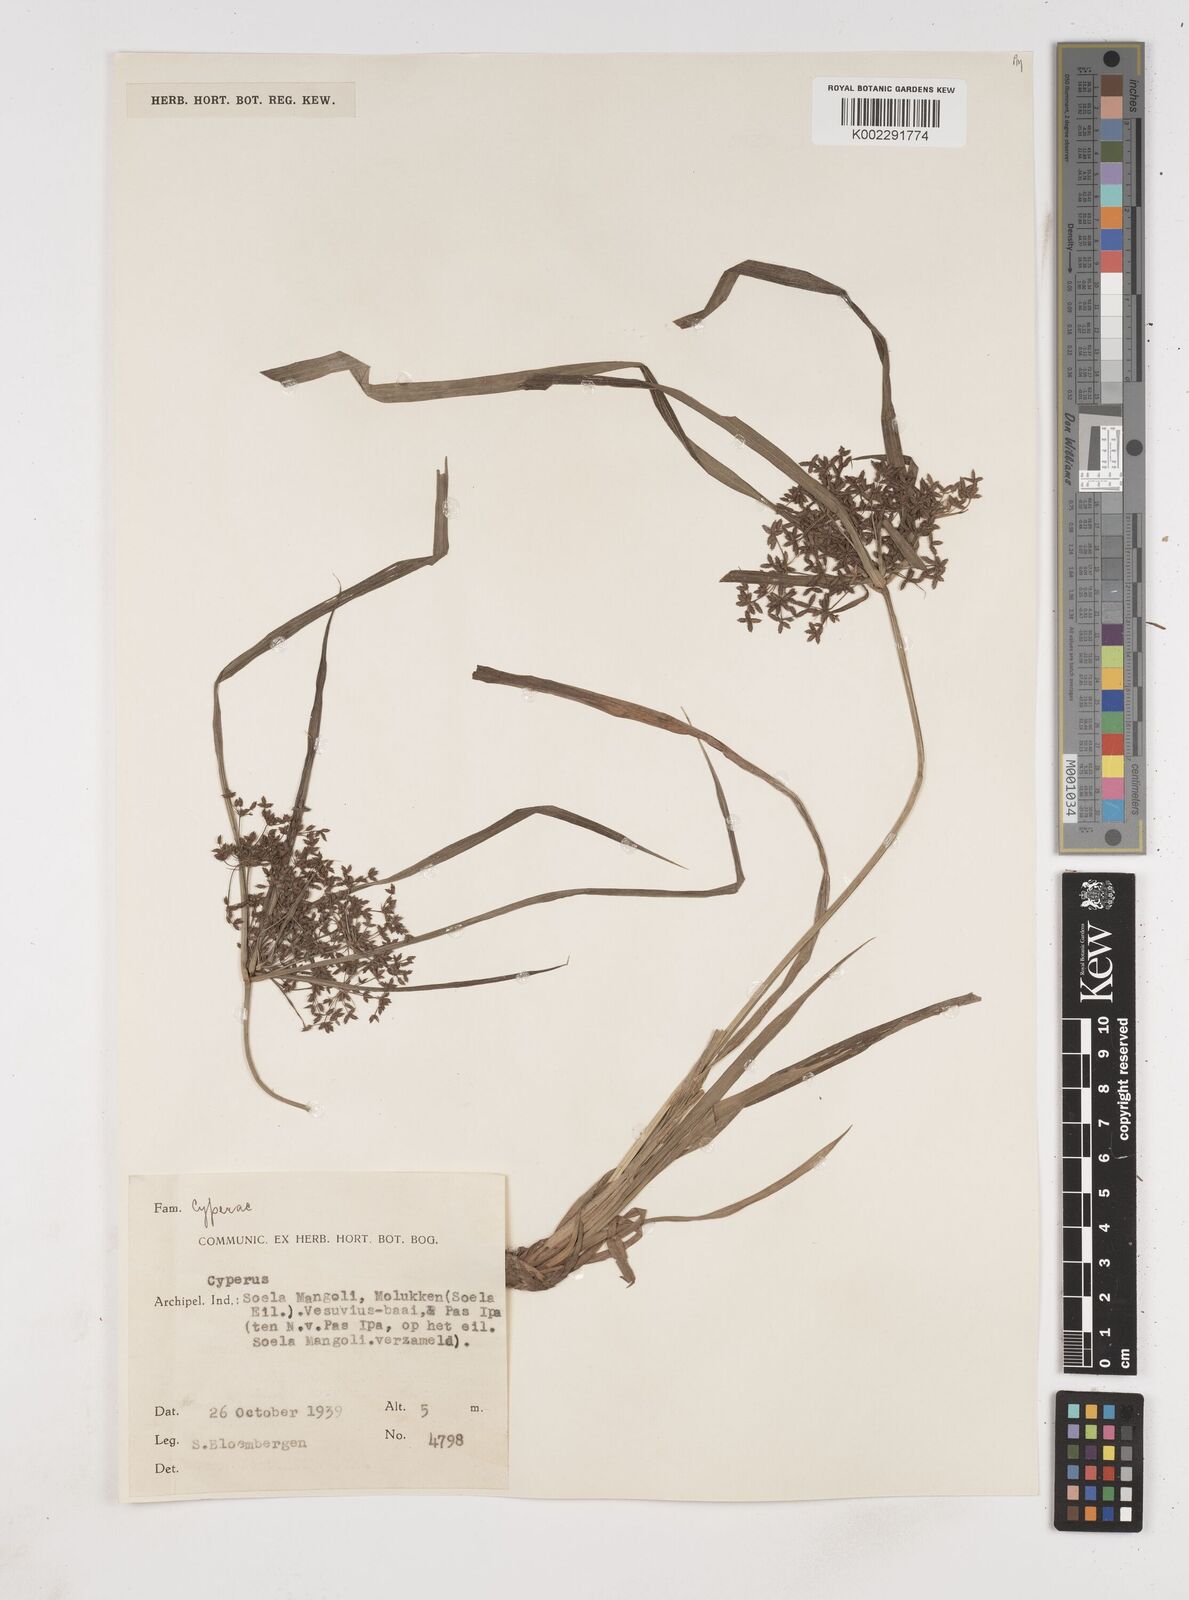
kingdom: Plantae
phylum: Tracheophyta
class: Liliopsida
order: Poales
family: Cyperaceae
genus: Cyperus
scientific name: Cyperus trialatus
